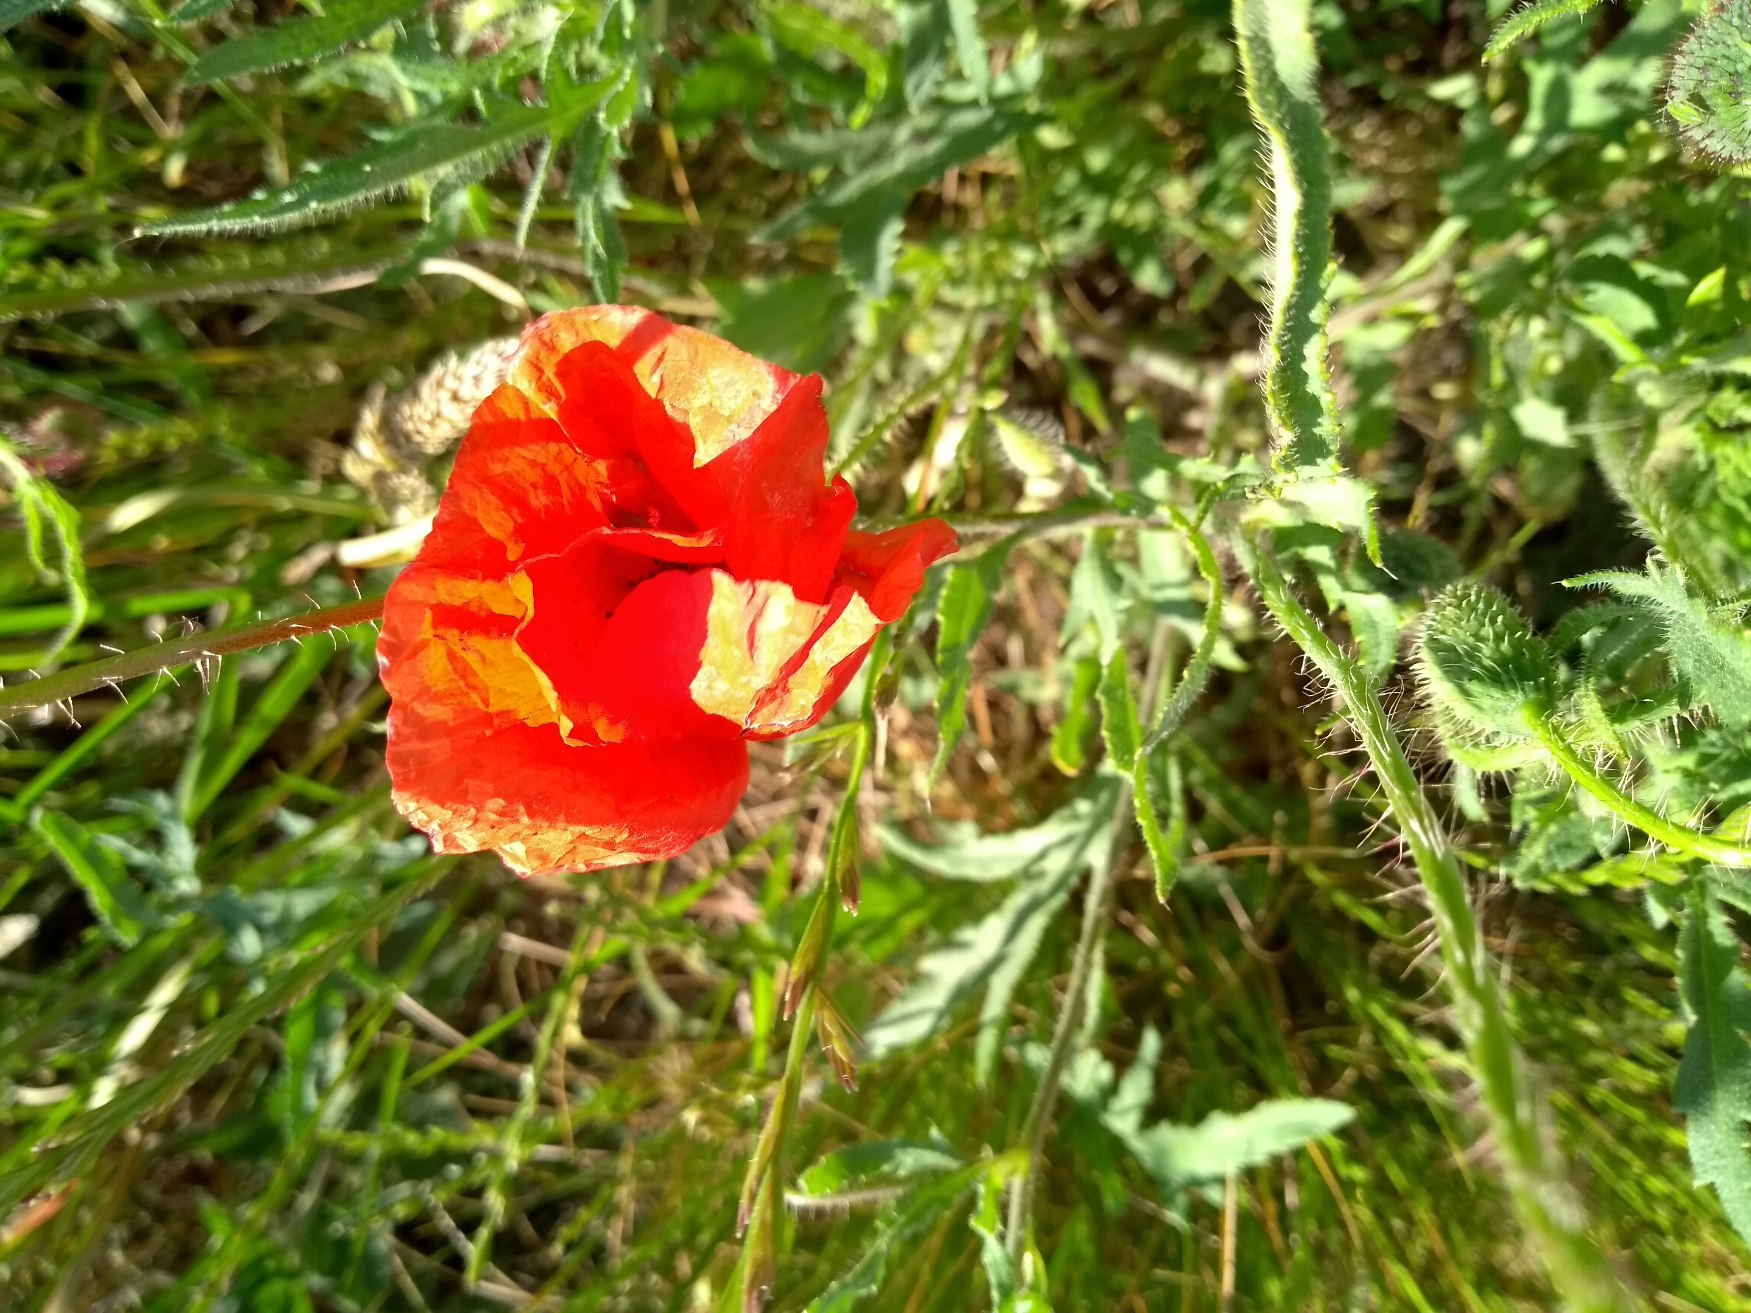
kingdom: Plantae
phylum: Tracheophyta
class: Magnoliopsida
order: Ranunculales
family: Papaveraceae
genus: Papaver
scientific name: Papaver rhoeas
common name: Korn-valmue
